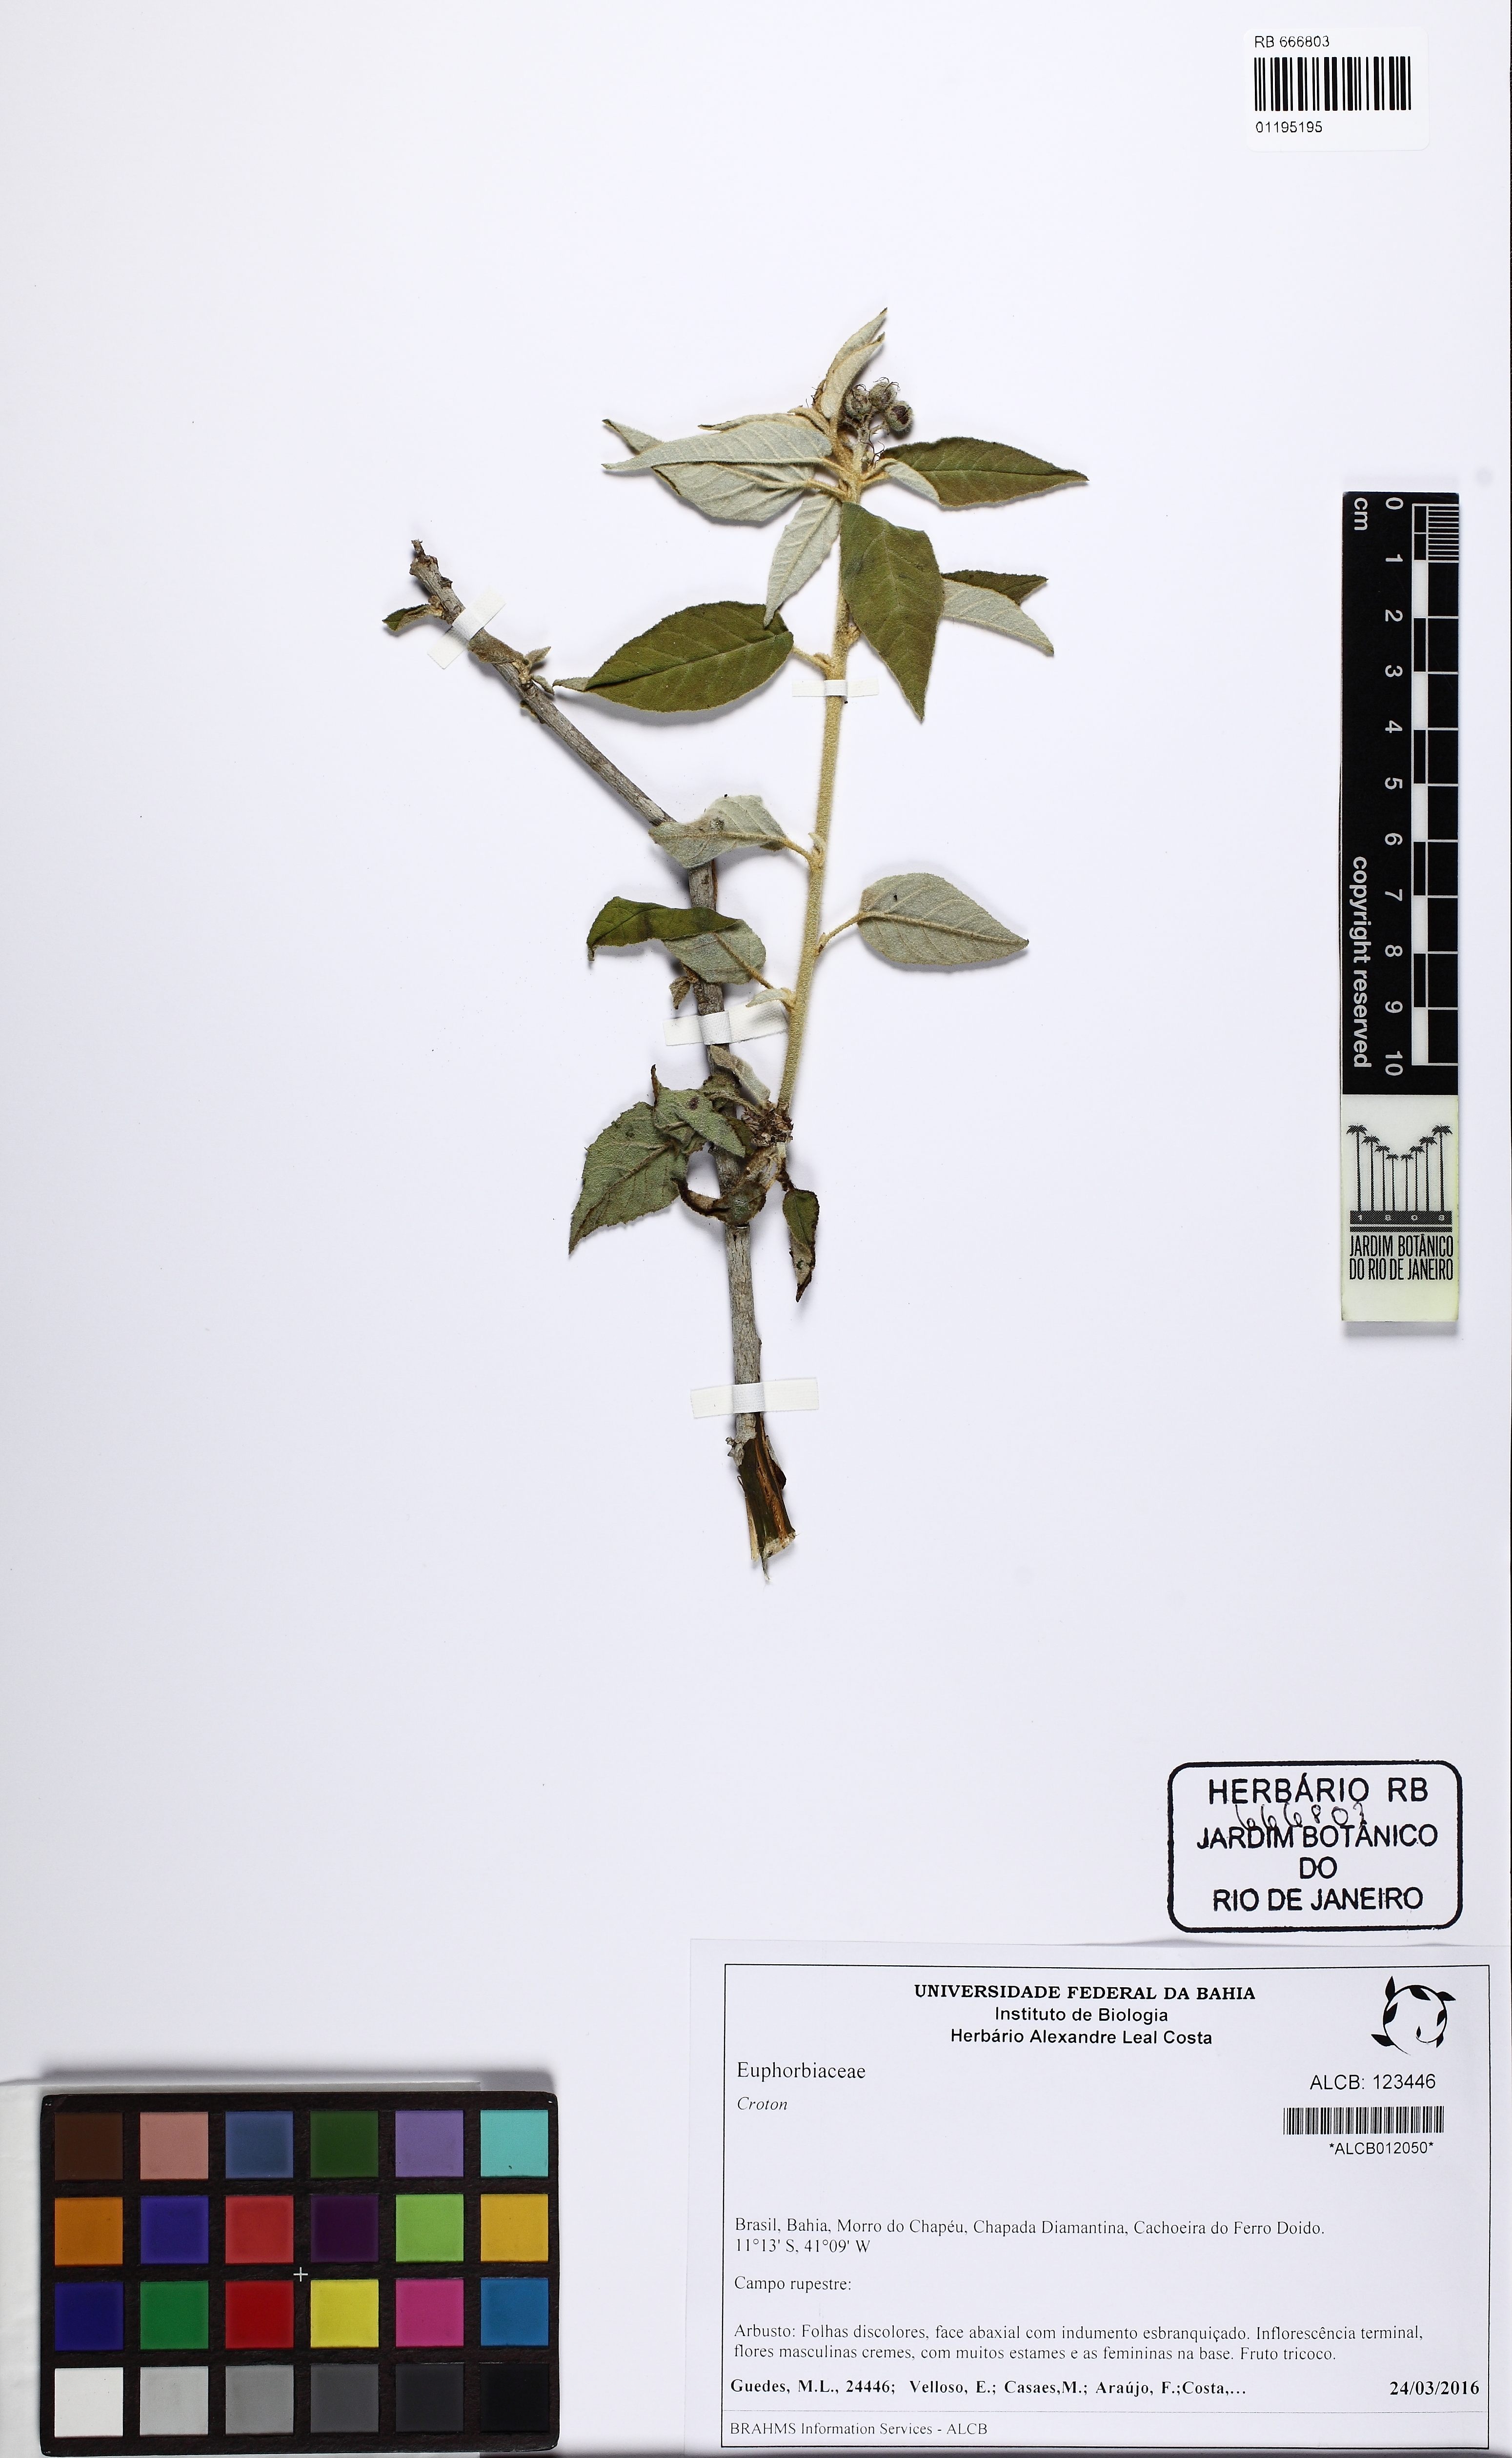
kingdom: Plantae
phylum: Tracheophyta
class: Magnoliopsida
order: Malpighiales
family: Euphorbiaceae
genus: Croton
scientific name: Croton
